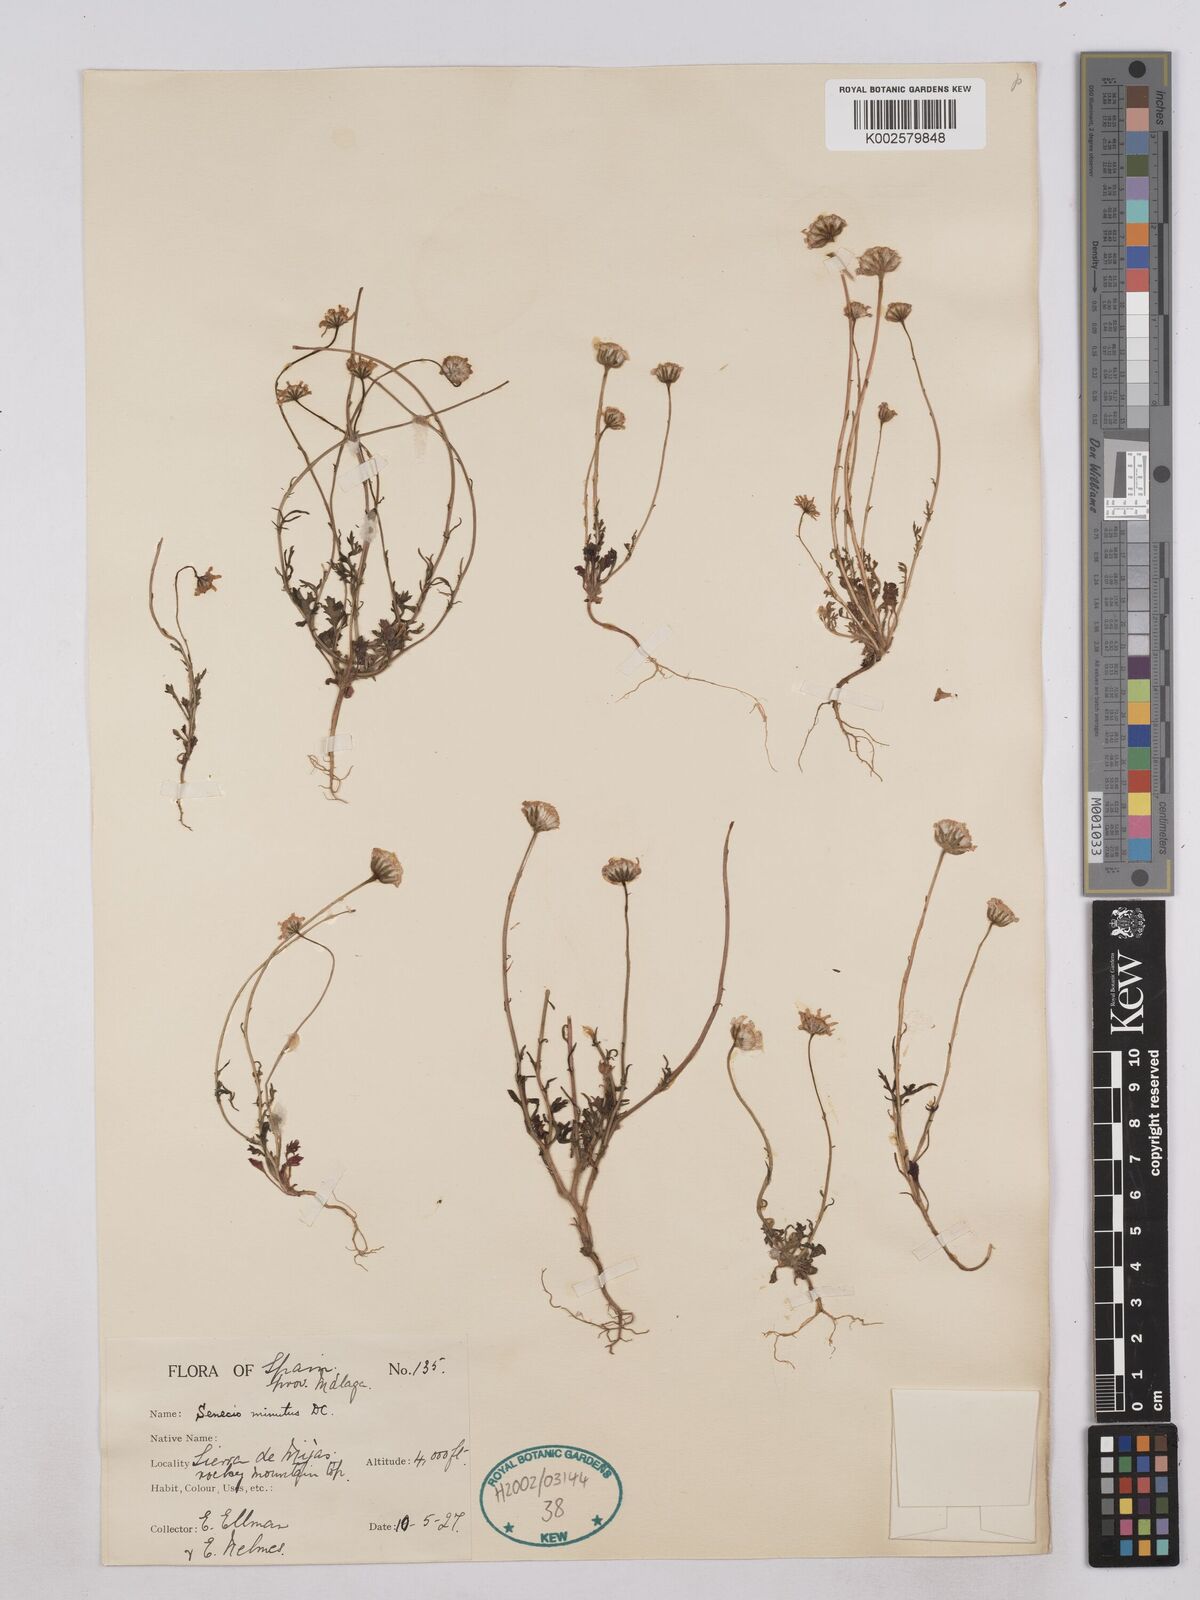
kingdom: Plantae
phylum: Tracheophyta
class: Magnoliopsida
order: Asterales
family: Asteraceae
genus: Jacobaea
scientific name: Jacobaea minuta
